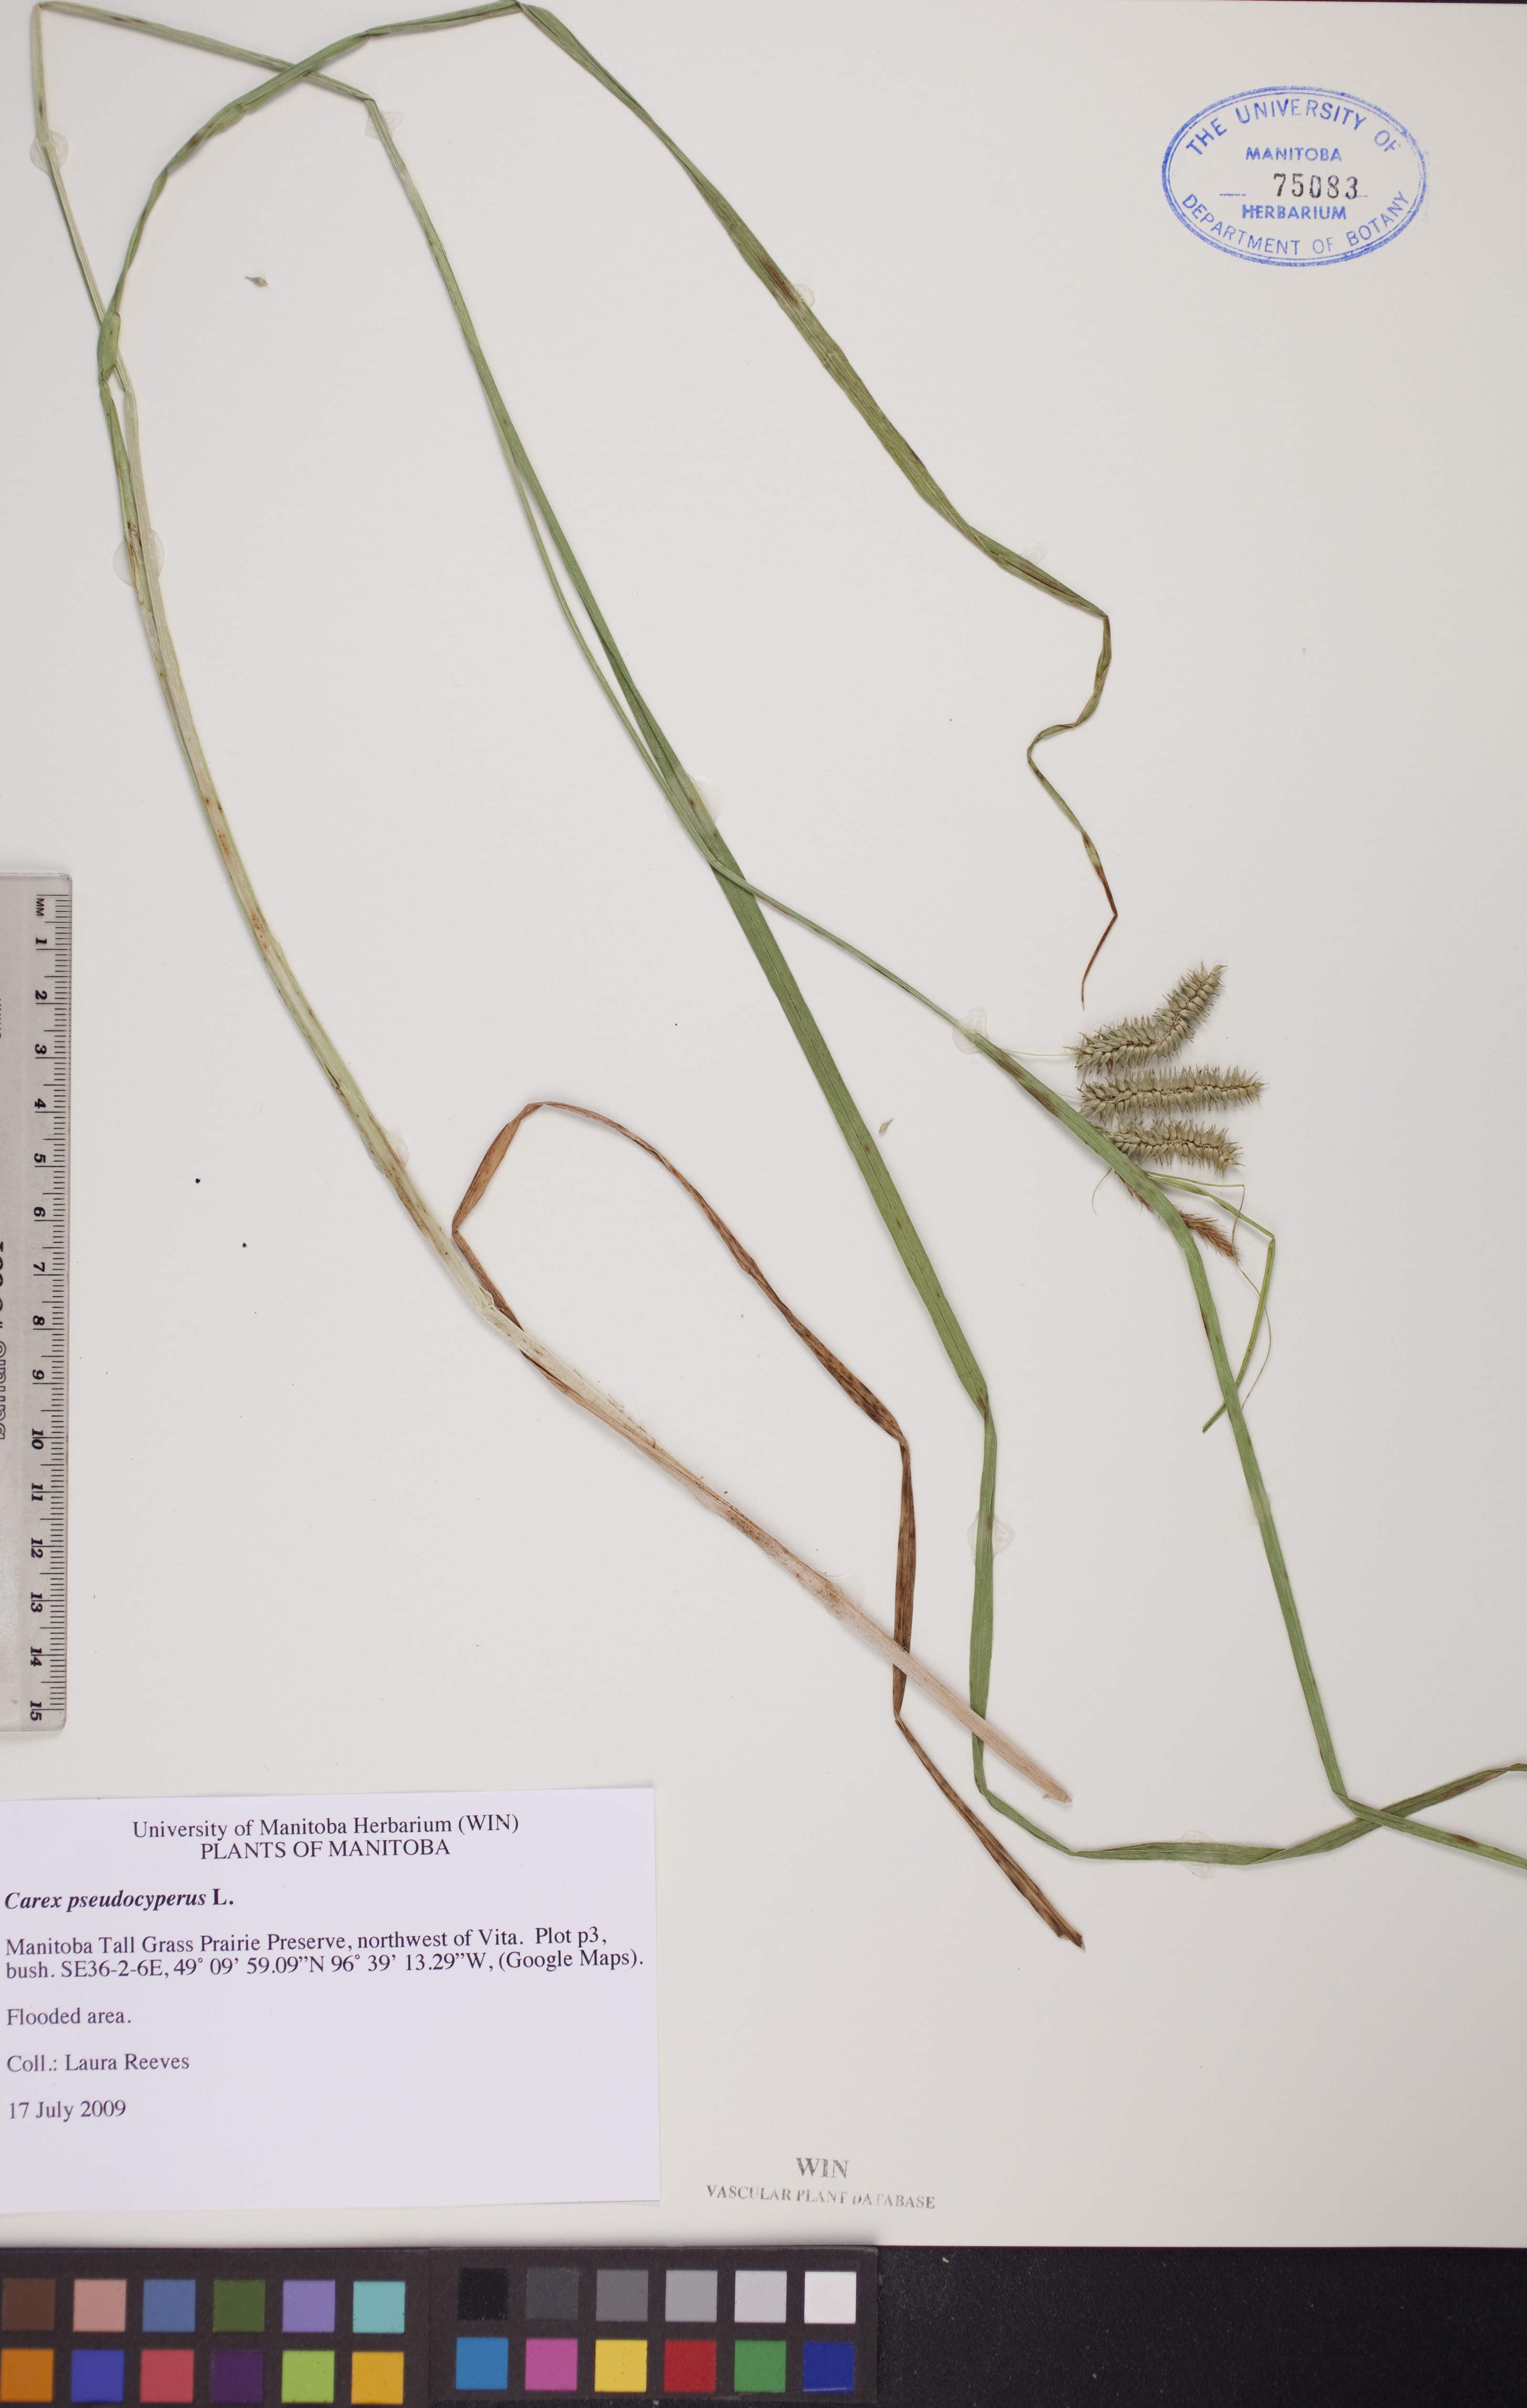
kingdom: Plantae
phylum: Tracheophyta
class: Liliopsida
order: Poales
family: Cyperaceae
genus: Carex
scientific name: Carex pseudocyperus
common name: Cyperus sedge
